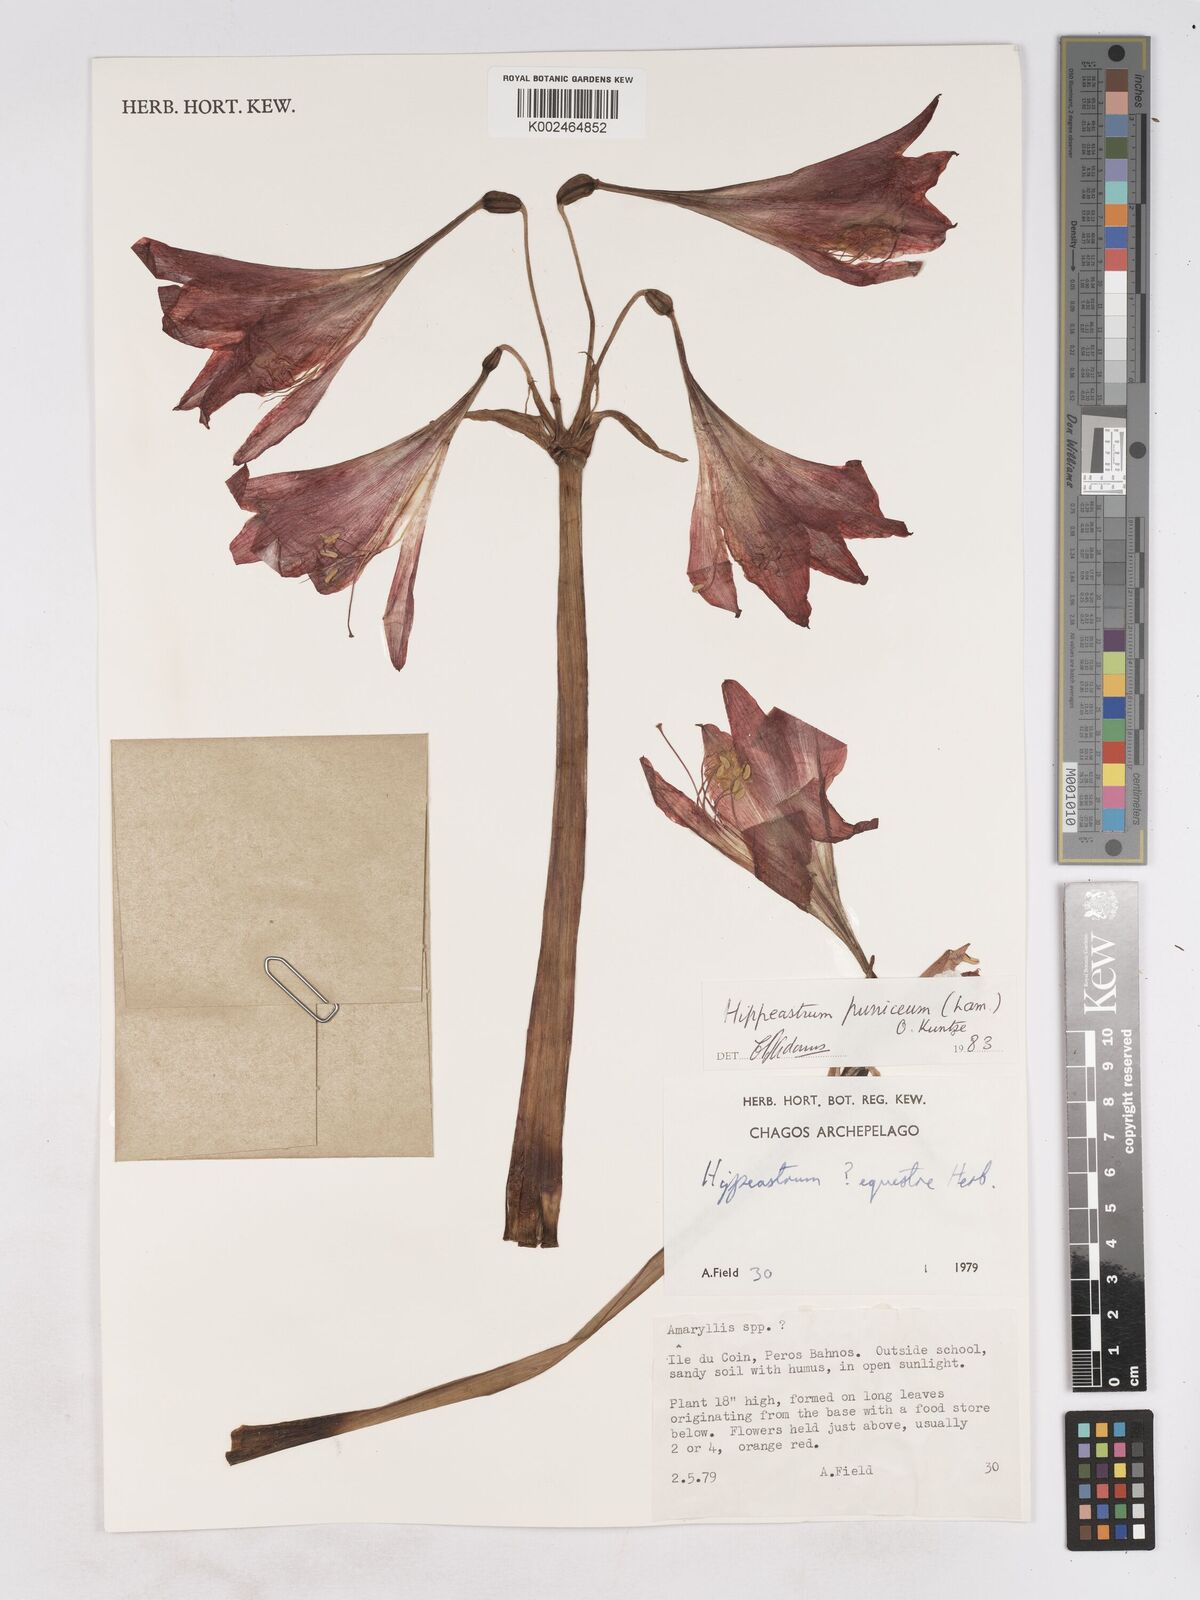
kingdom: Plantae
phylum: Tracheophyta
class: Liliopsida
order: Asparagales
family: Amaryllidaceae
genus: Hippeastrum
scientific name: Hippeastrum puniceum
